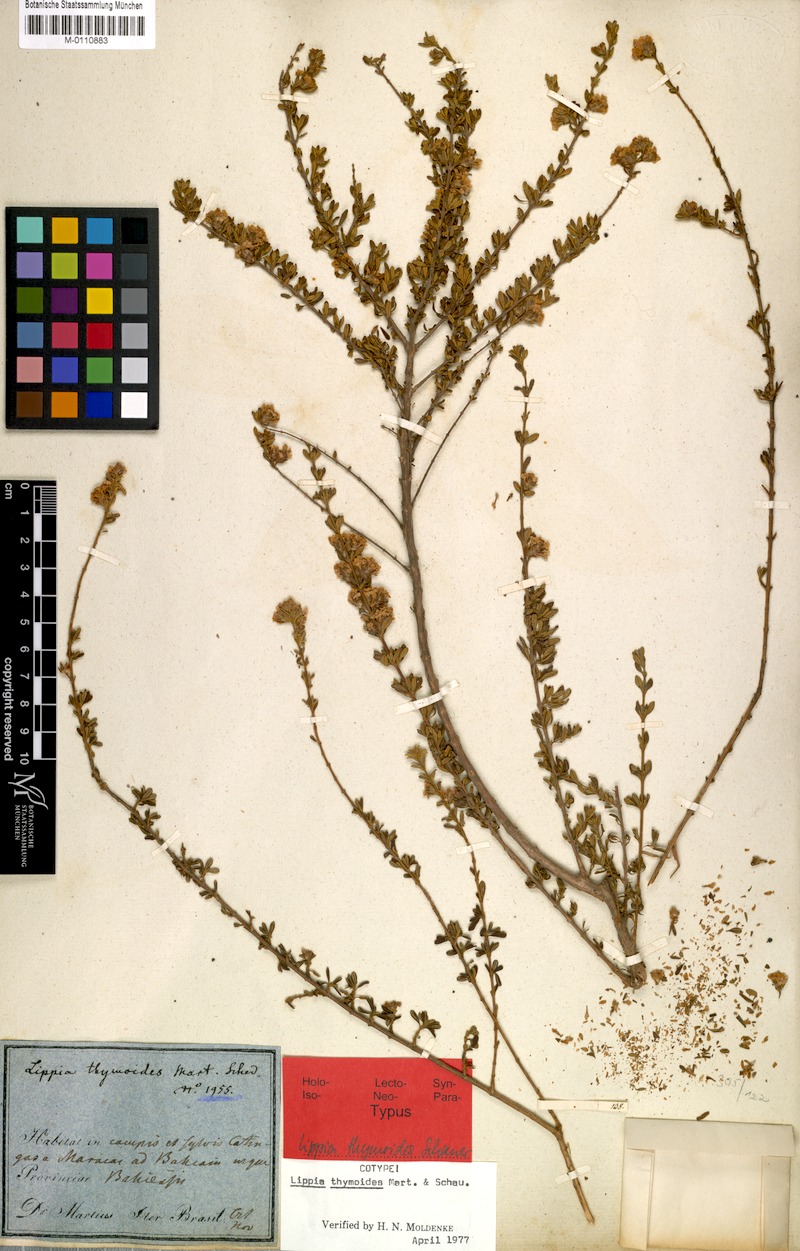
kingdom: Plantae
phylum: Tracheophyta
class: Magnoliopsida
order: Lamiales
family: Verbenaceae
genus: Lippia
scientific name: Lippia thymoides
